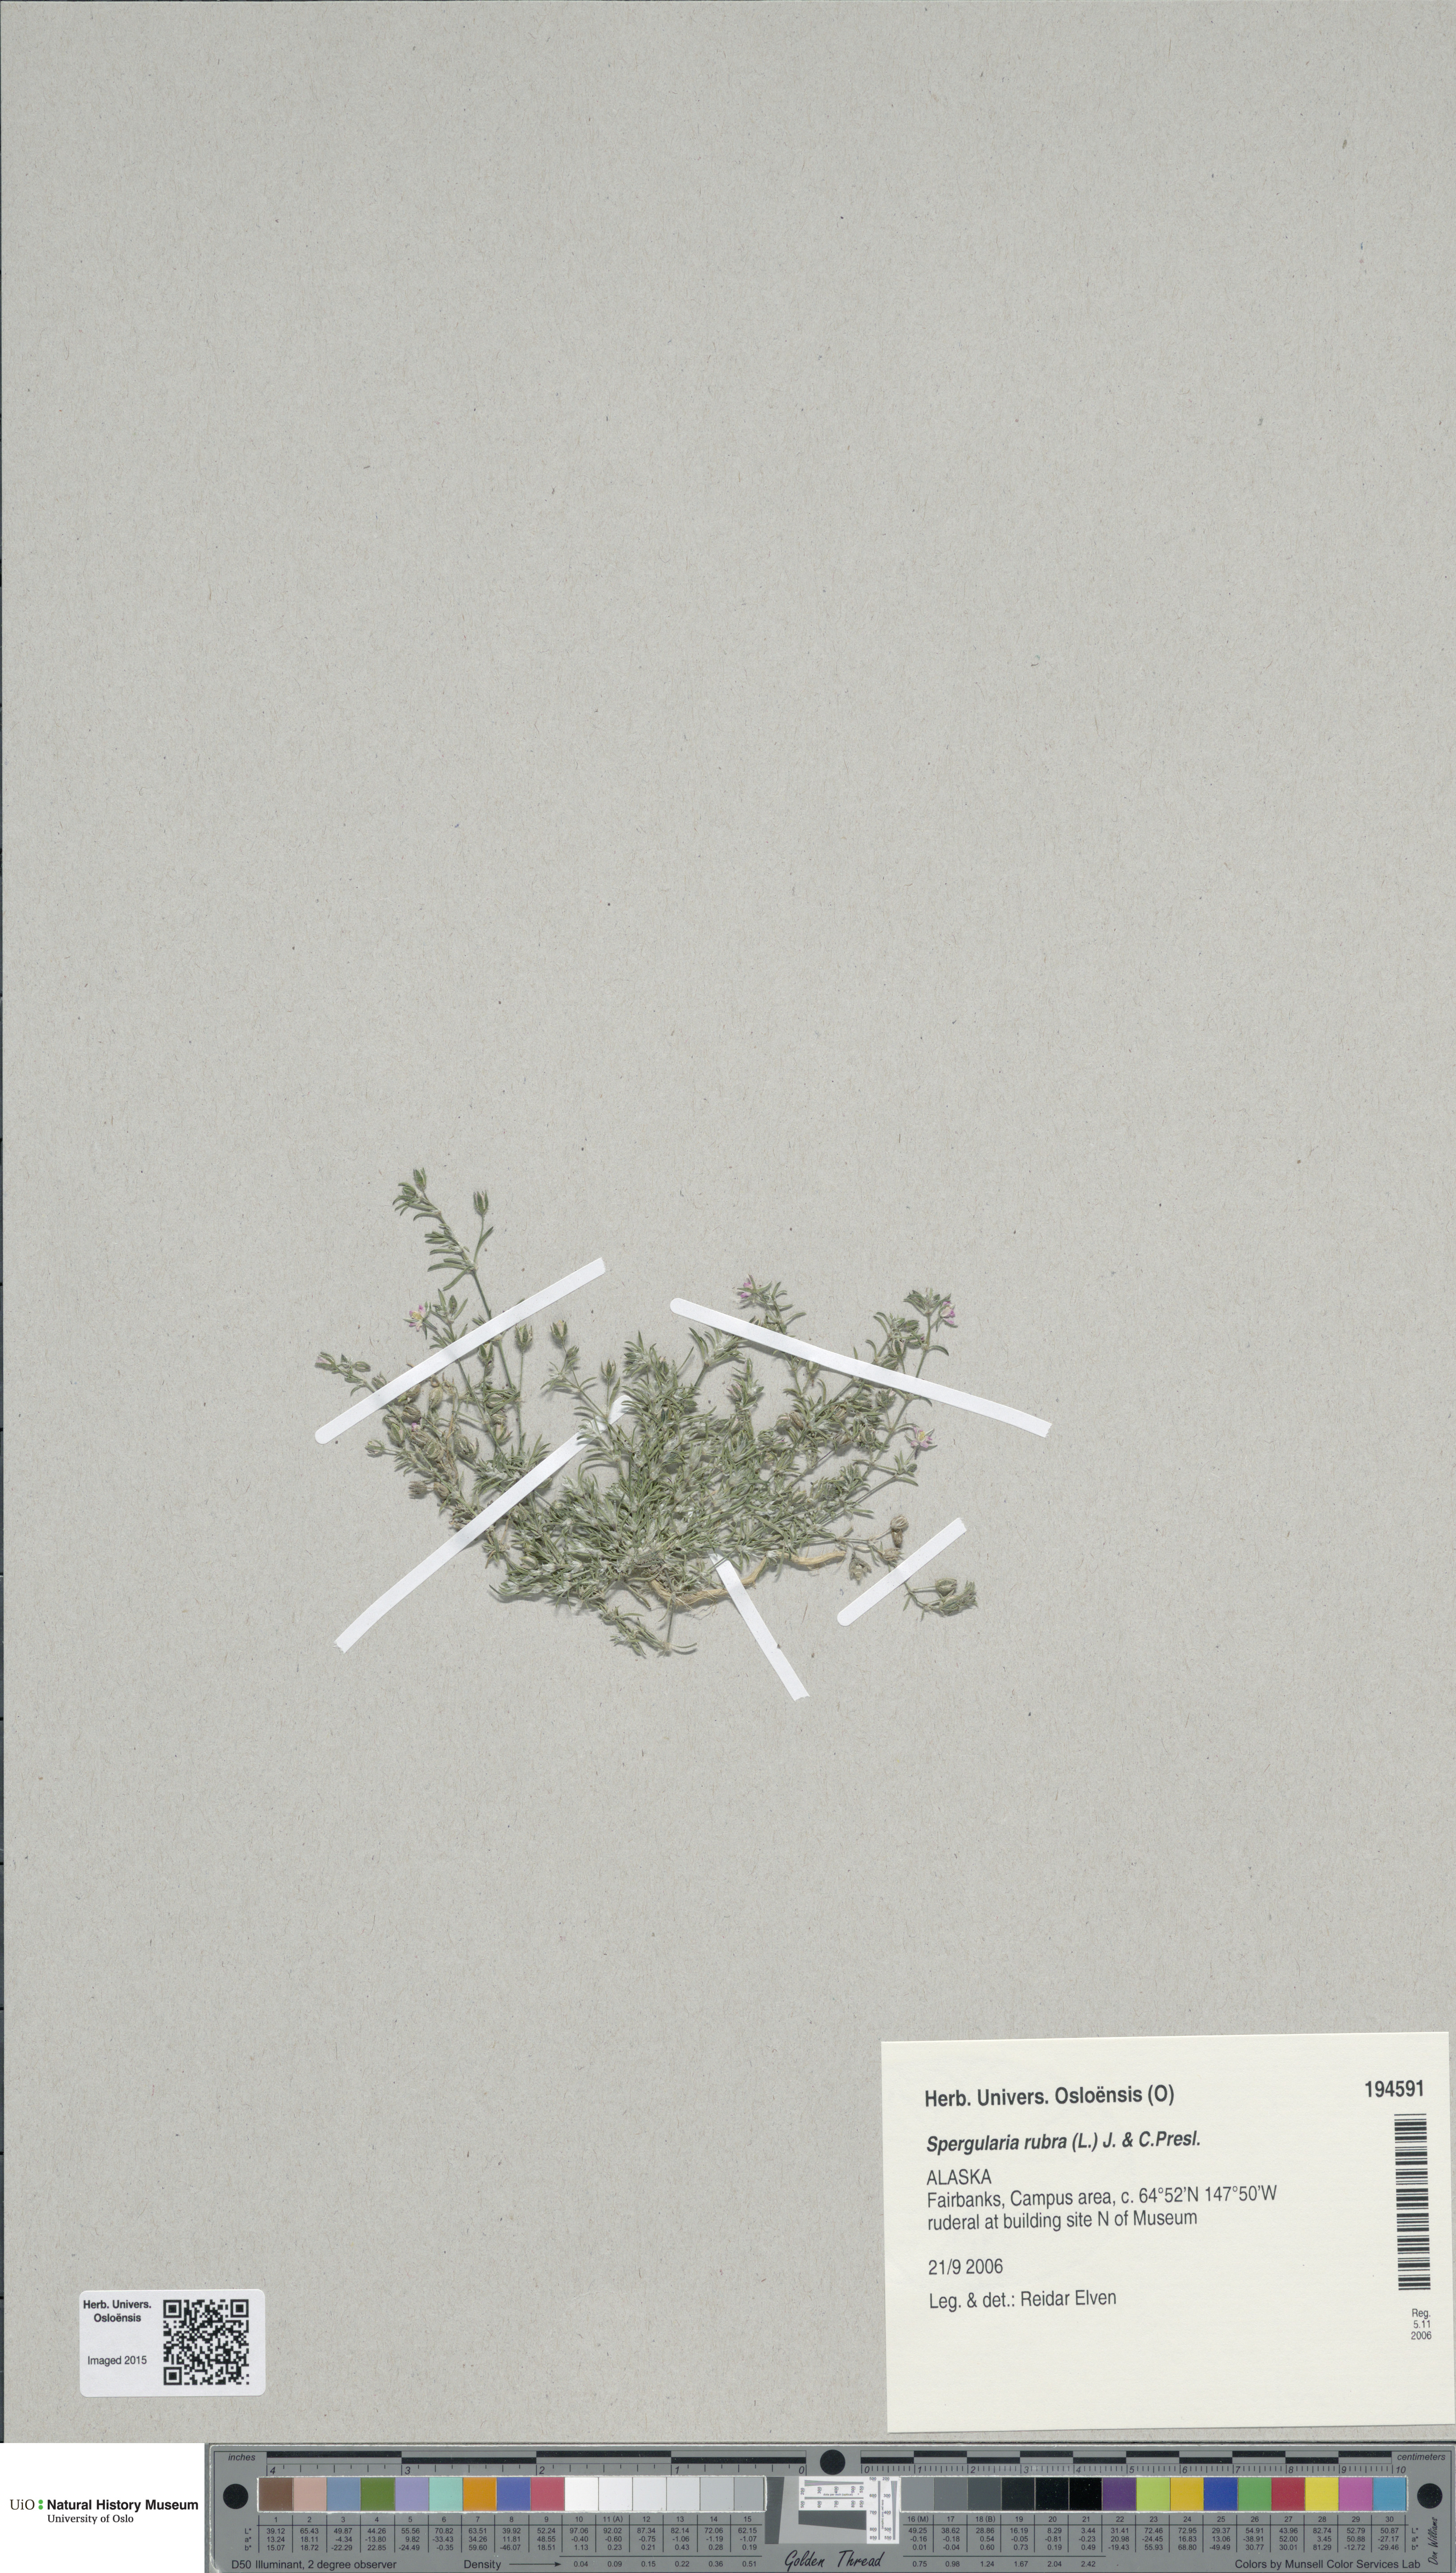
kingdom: Plantae
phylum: Tracheophyta
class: Magnoliopsida
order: Caryophyllales
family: Caryophyllaceae
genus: Spergularia
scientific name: Spergularia rubra
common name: Red sand-spurrey
